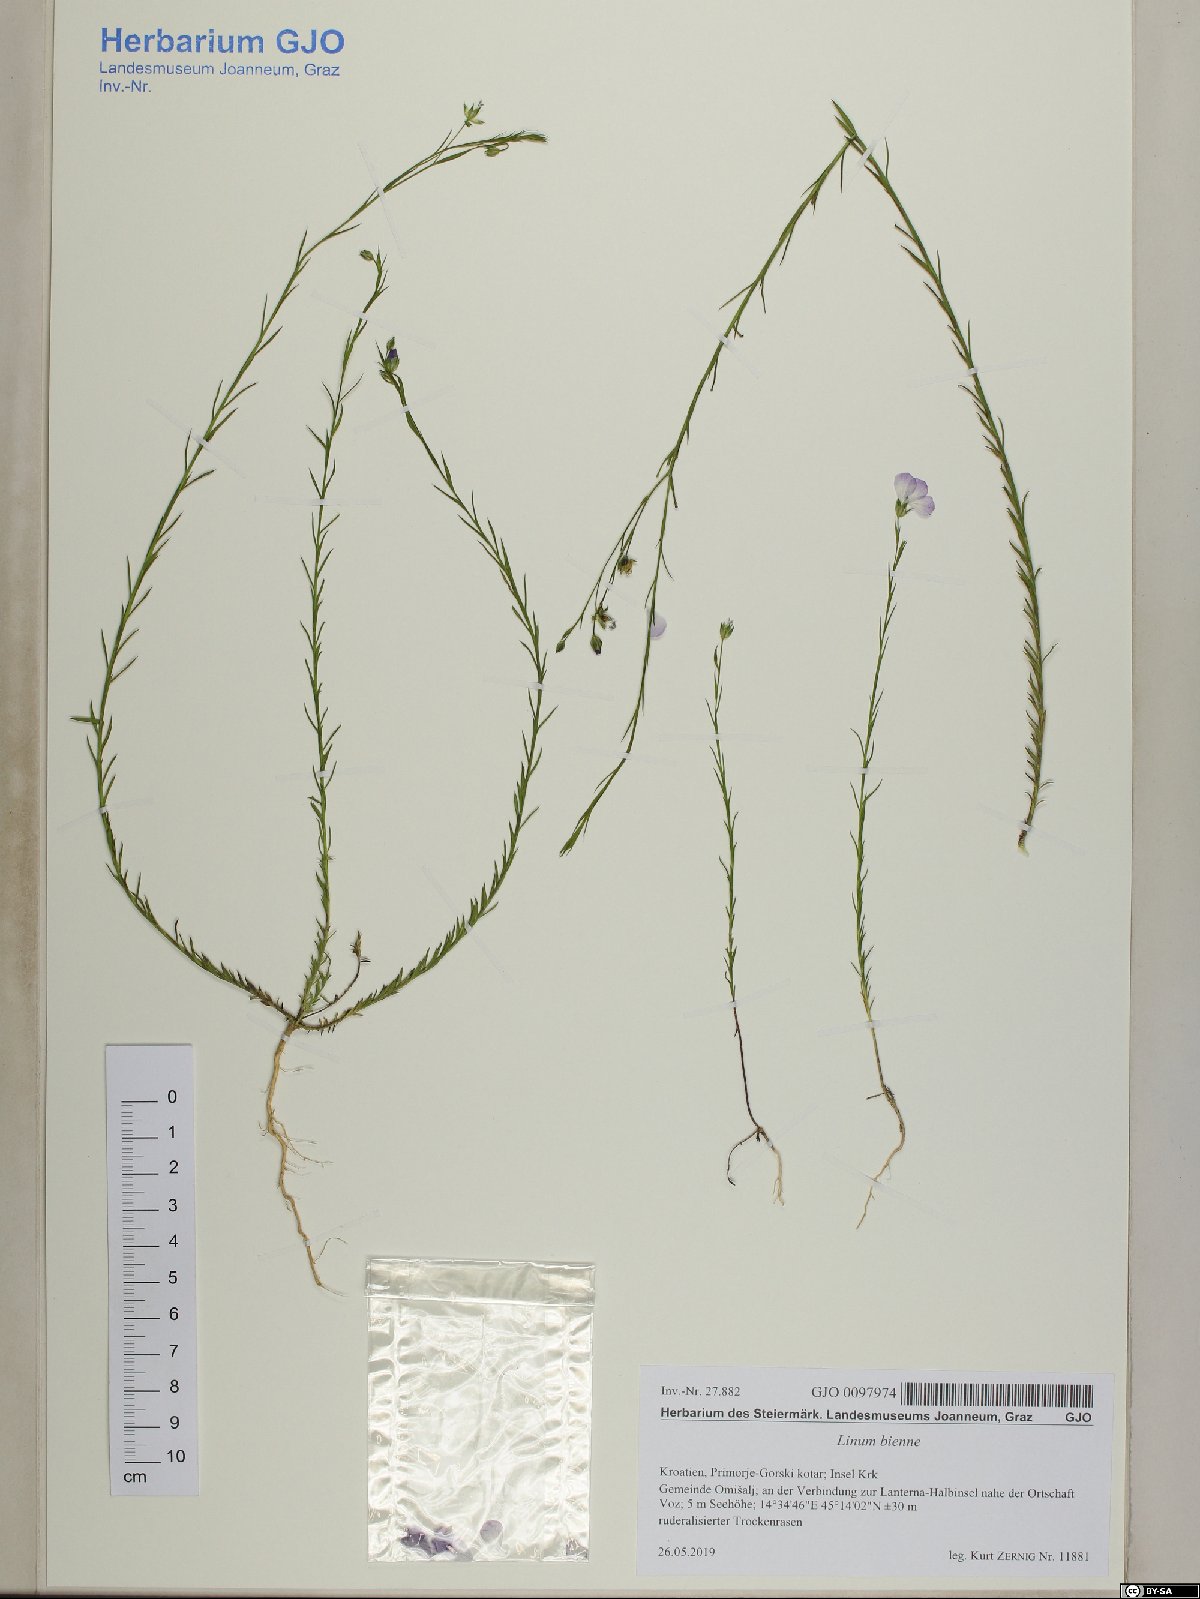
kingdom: Plantae
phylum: Tracheophyta
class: Magnoliopsida
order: Malpighiales
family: Linaceae
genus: Linum
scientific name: Linum bienne
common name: Pale flax
